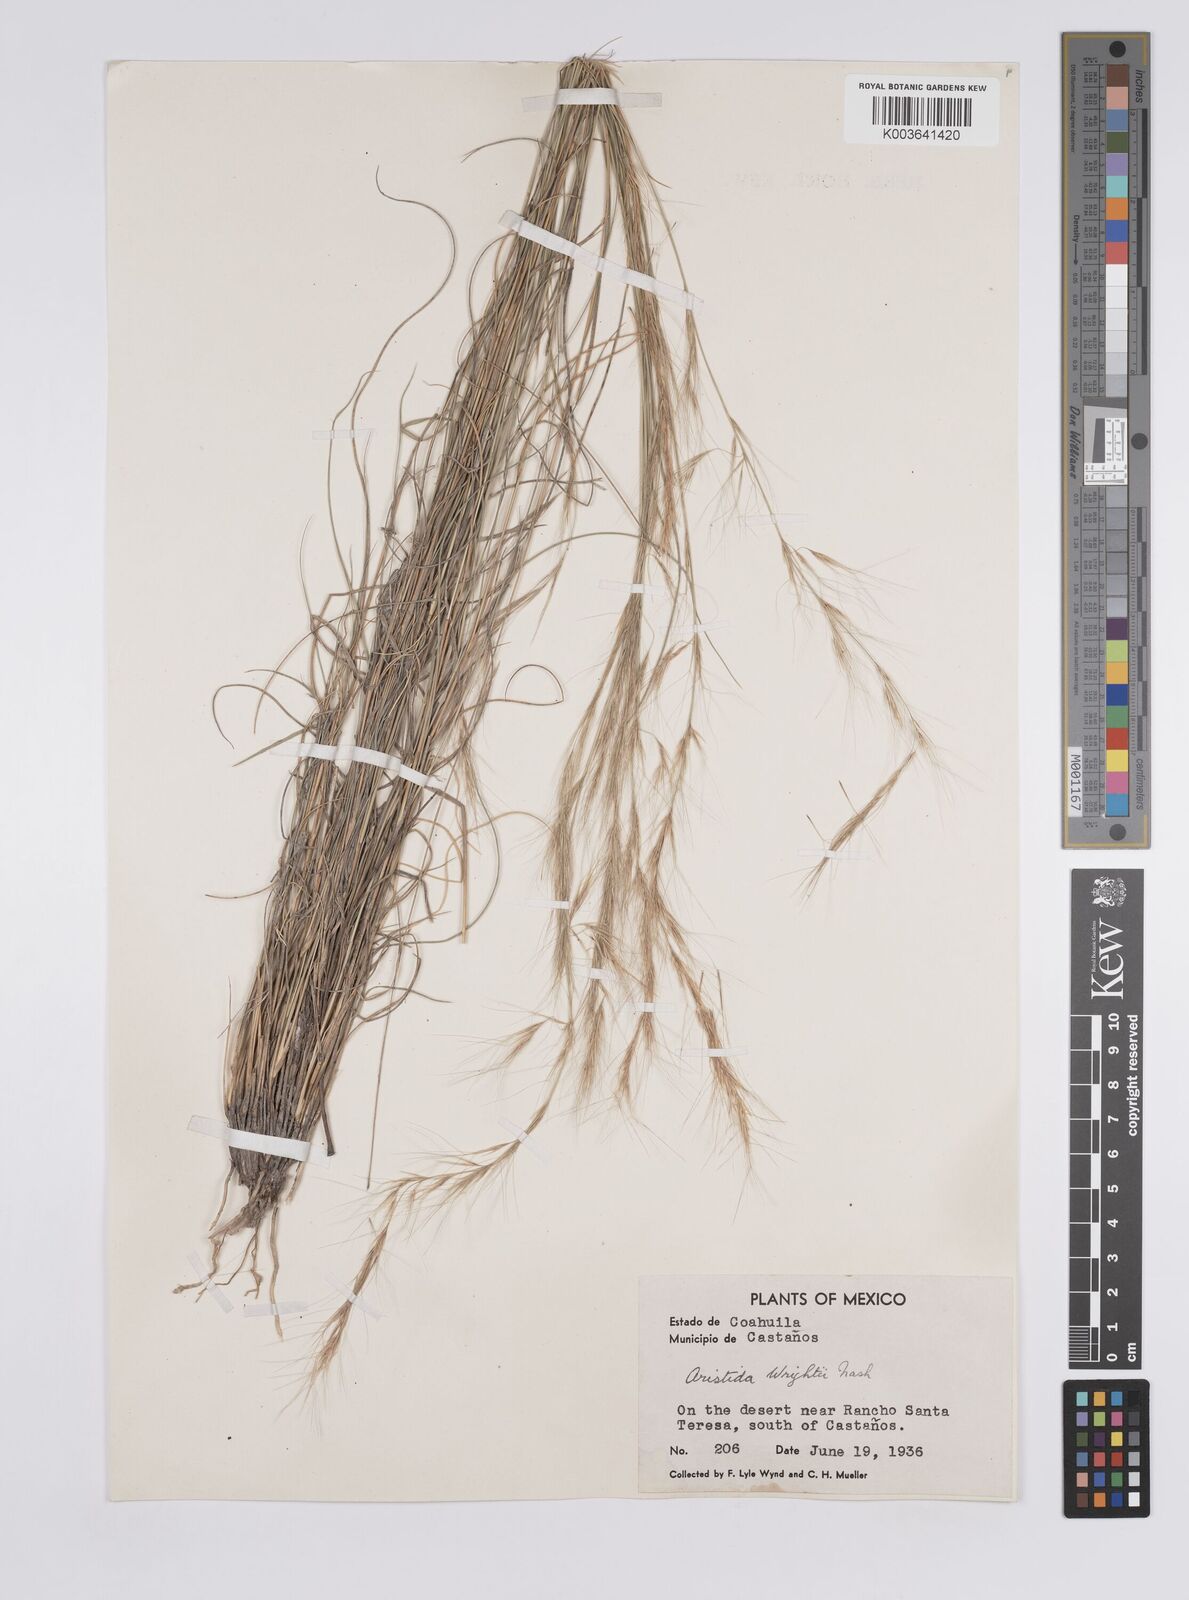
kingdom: Plantae
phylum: Tracheophyta
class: Liliopsida
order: Poales
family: Poaceae
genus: Aristida
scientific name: Aristida purpurea
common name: Purple threeawn
